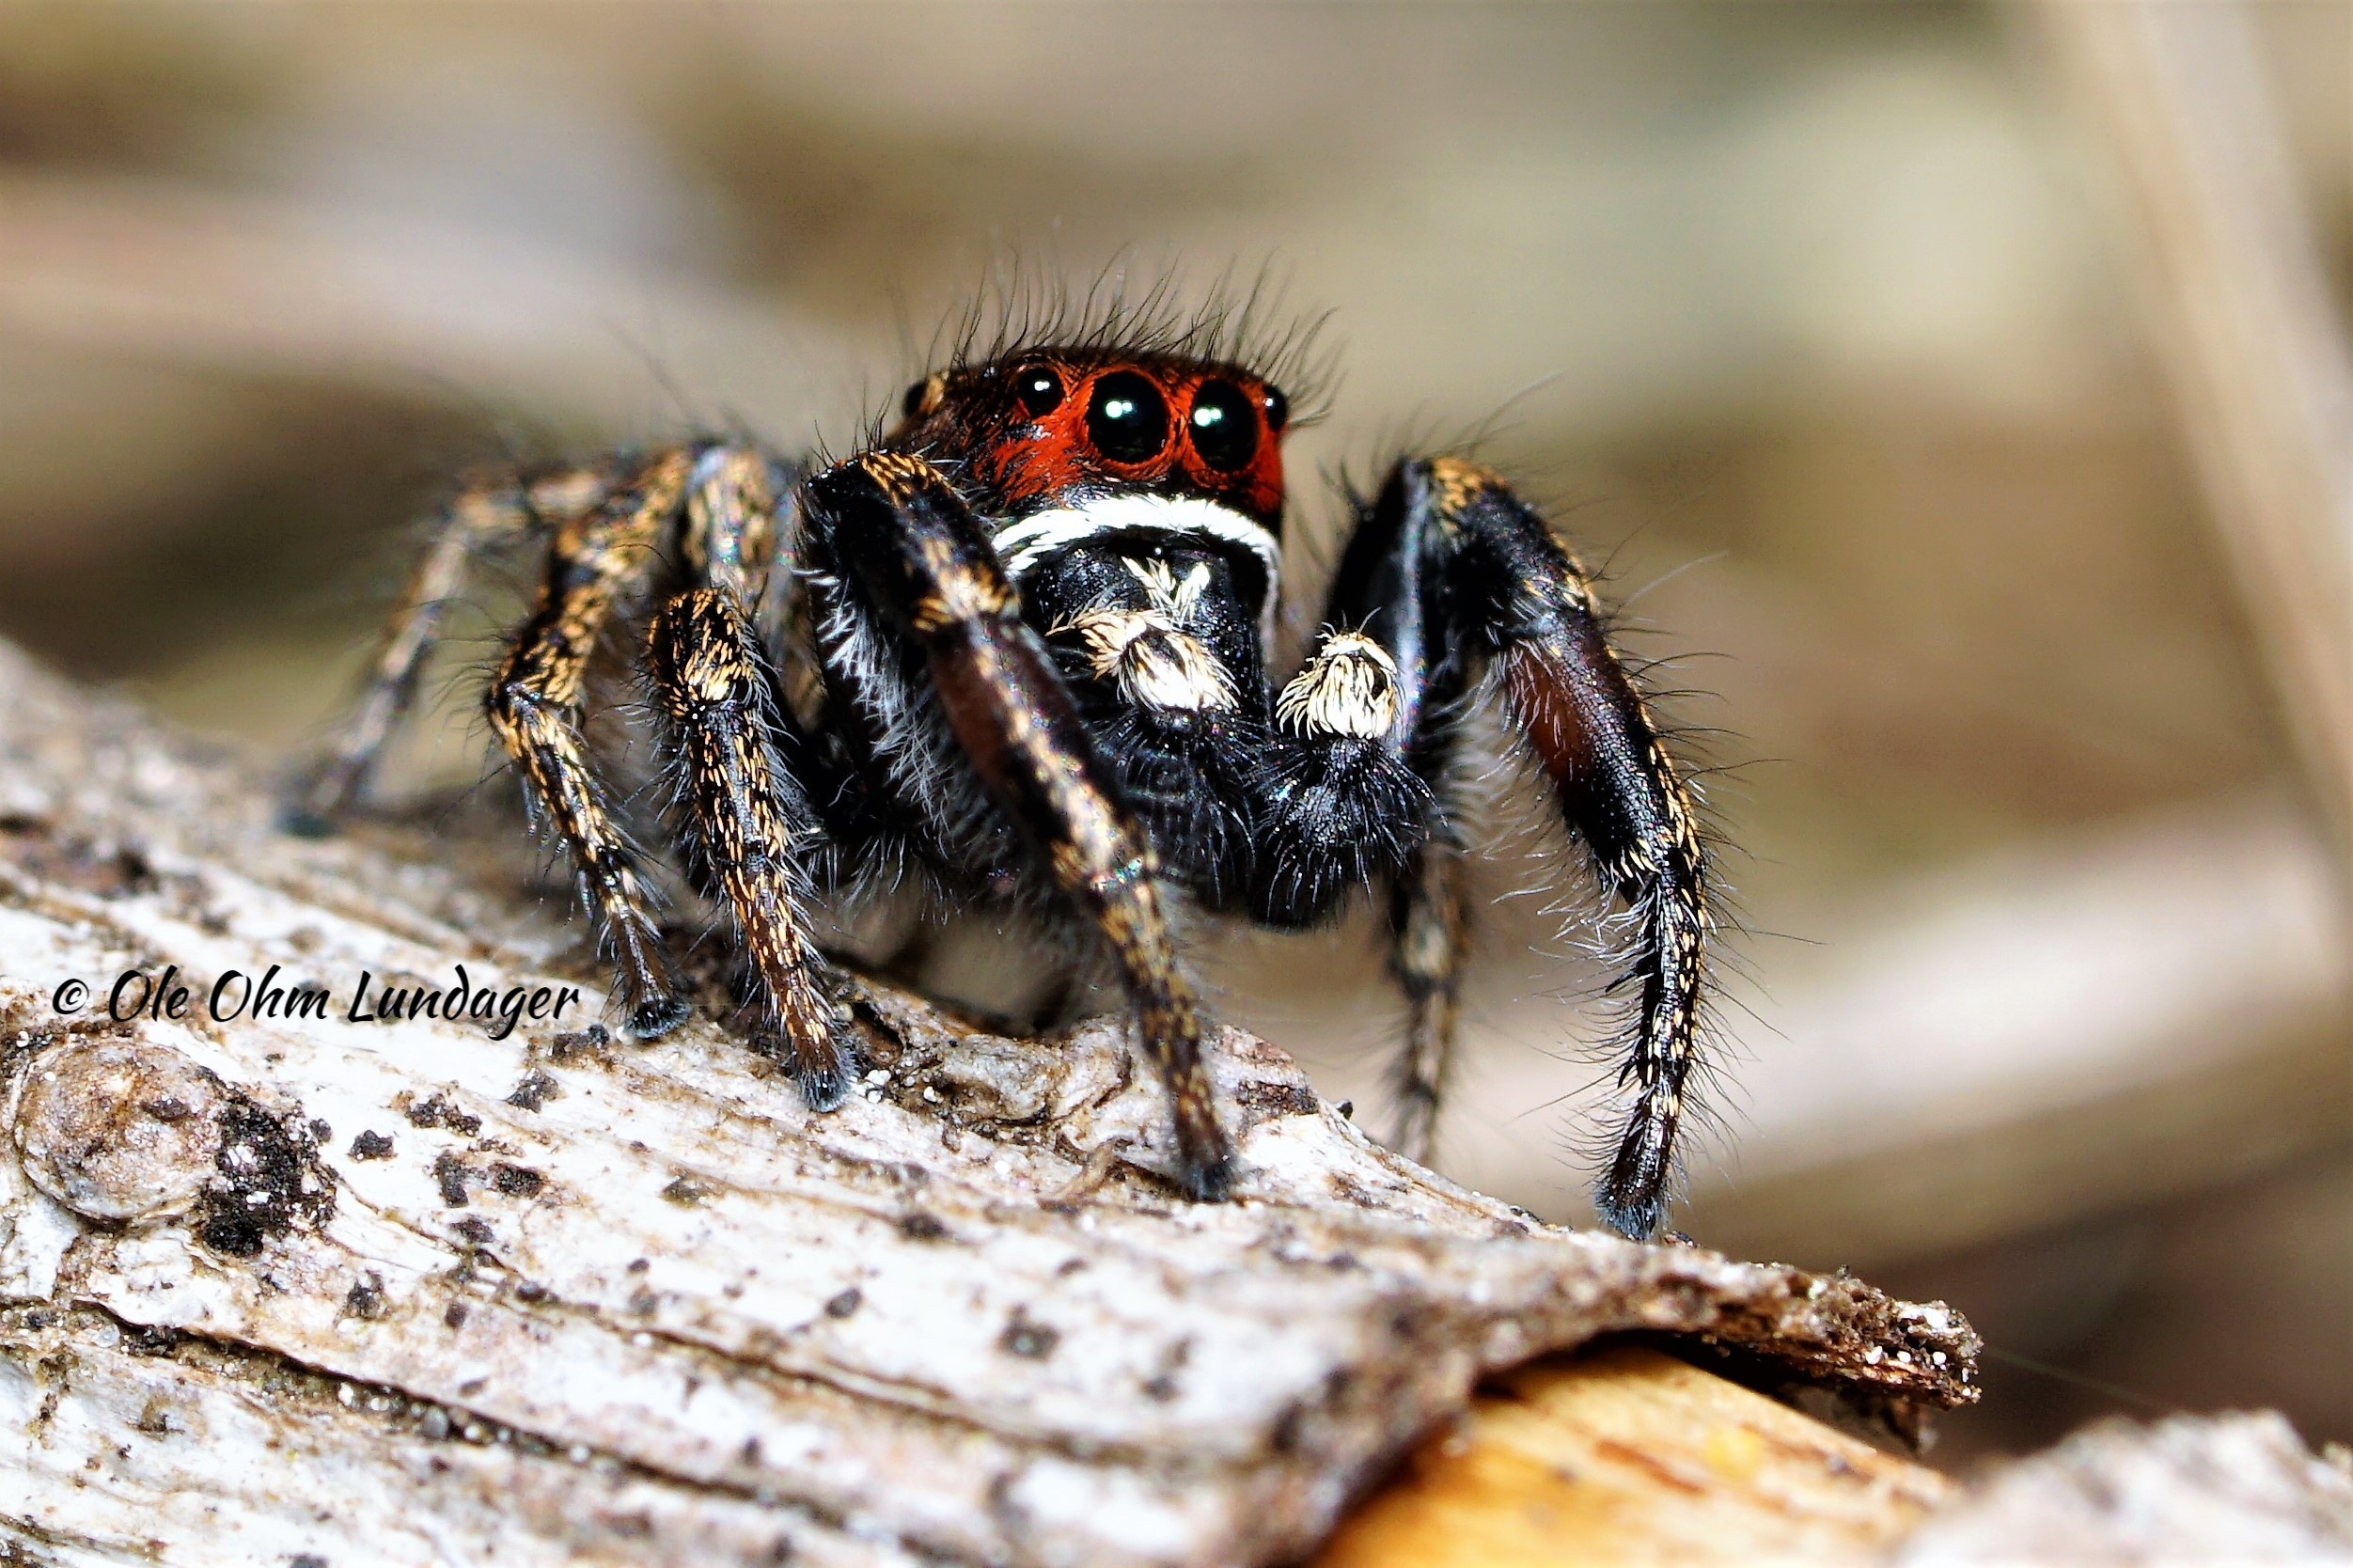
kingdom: Animalia
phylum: Arthropoda
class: Arachnida
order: Araneae
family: Salticidae
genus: Pellenes
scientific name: Pellenes tripunctatus
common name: Treplettet springedderkop
